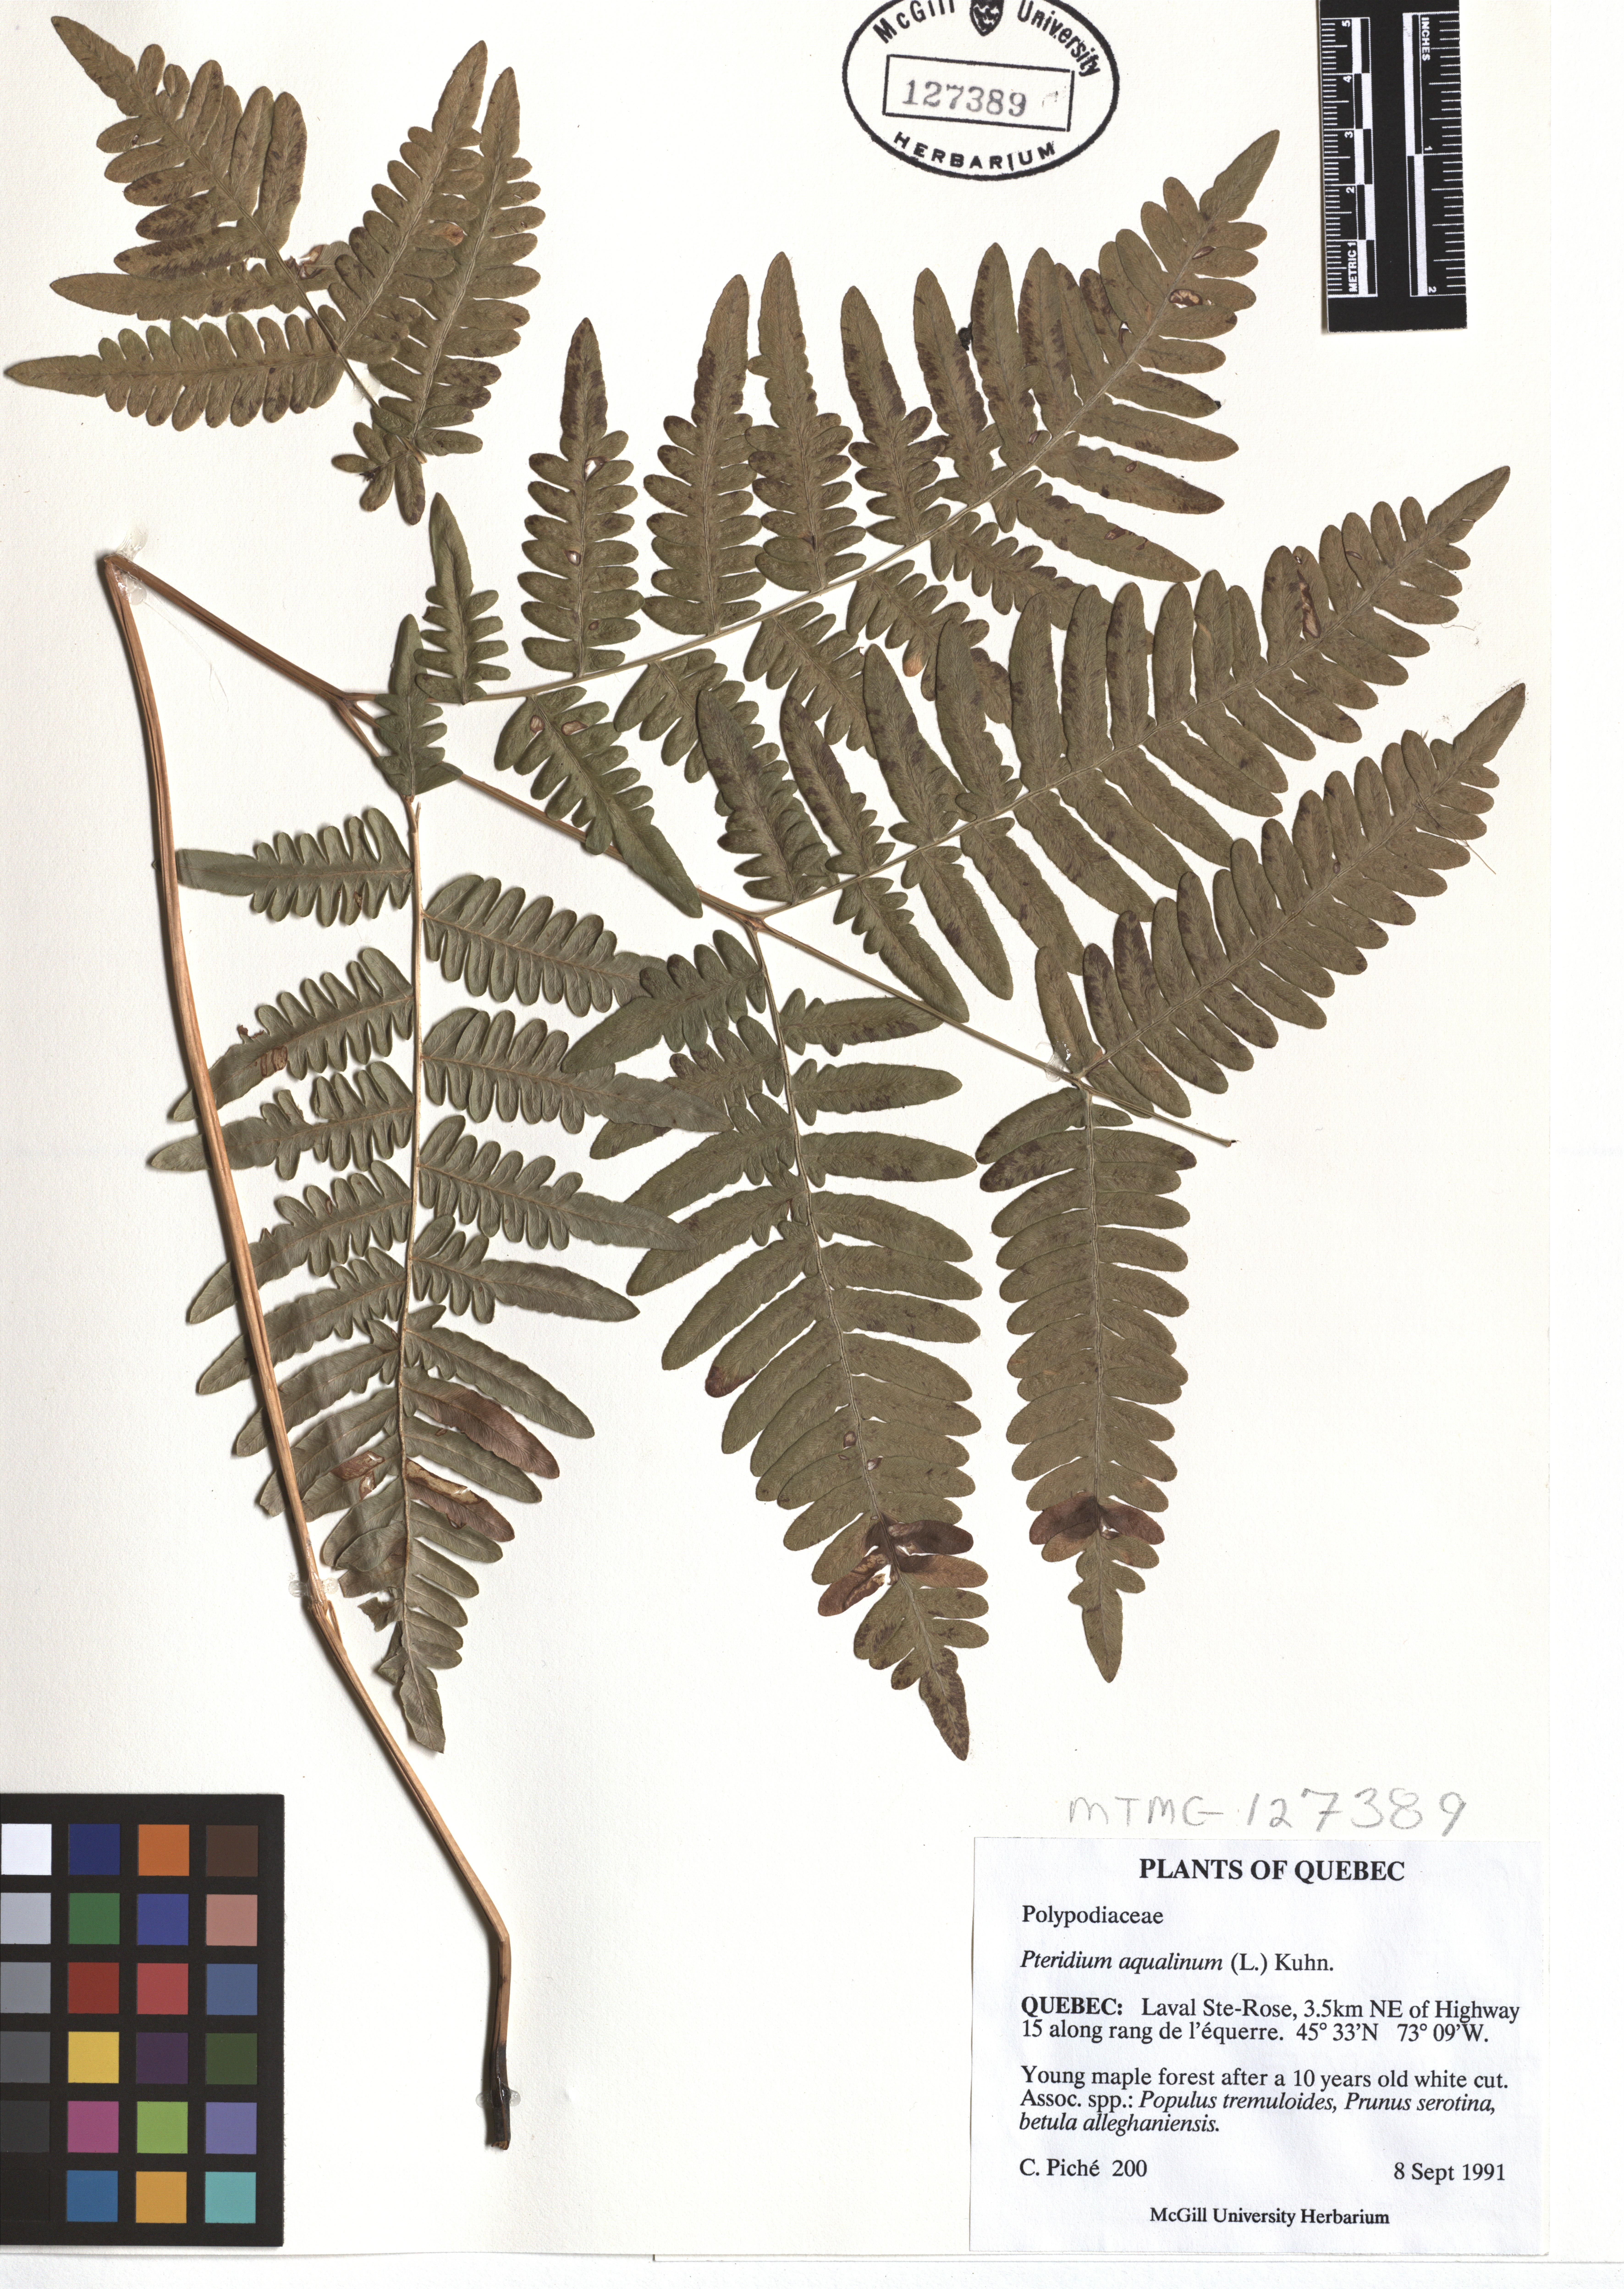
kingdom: Plantae
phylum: Tracheophyta
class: Polypodiopsida
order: Polypodiales
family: Dennstaedtiaceae
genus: Pteridium
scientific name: Pteridium aquilinum
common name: Bracken
